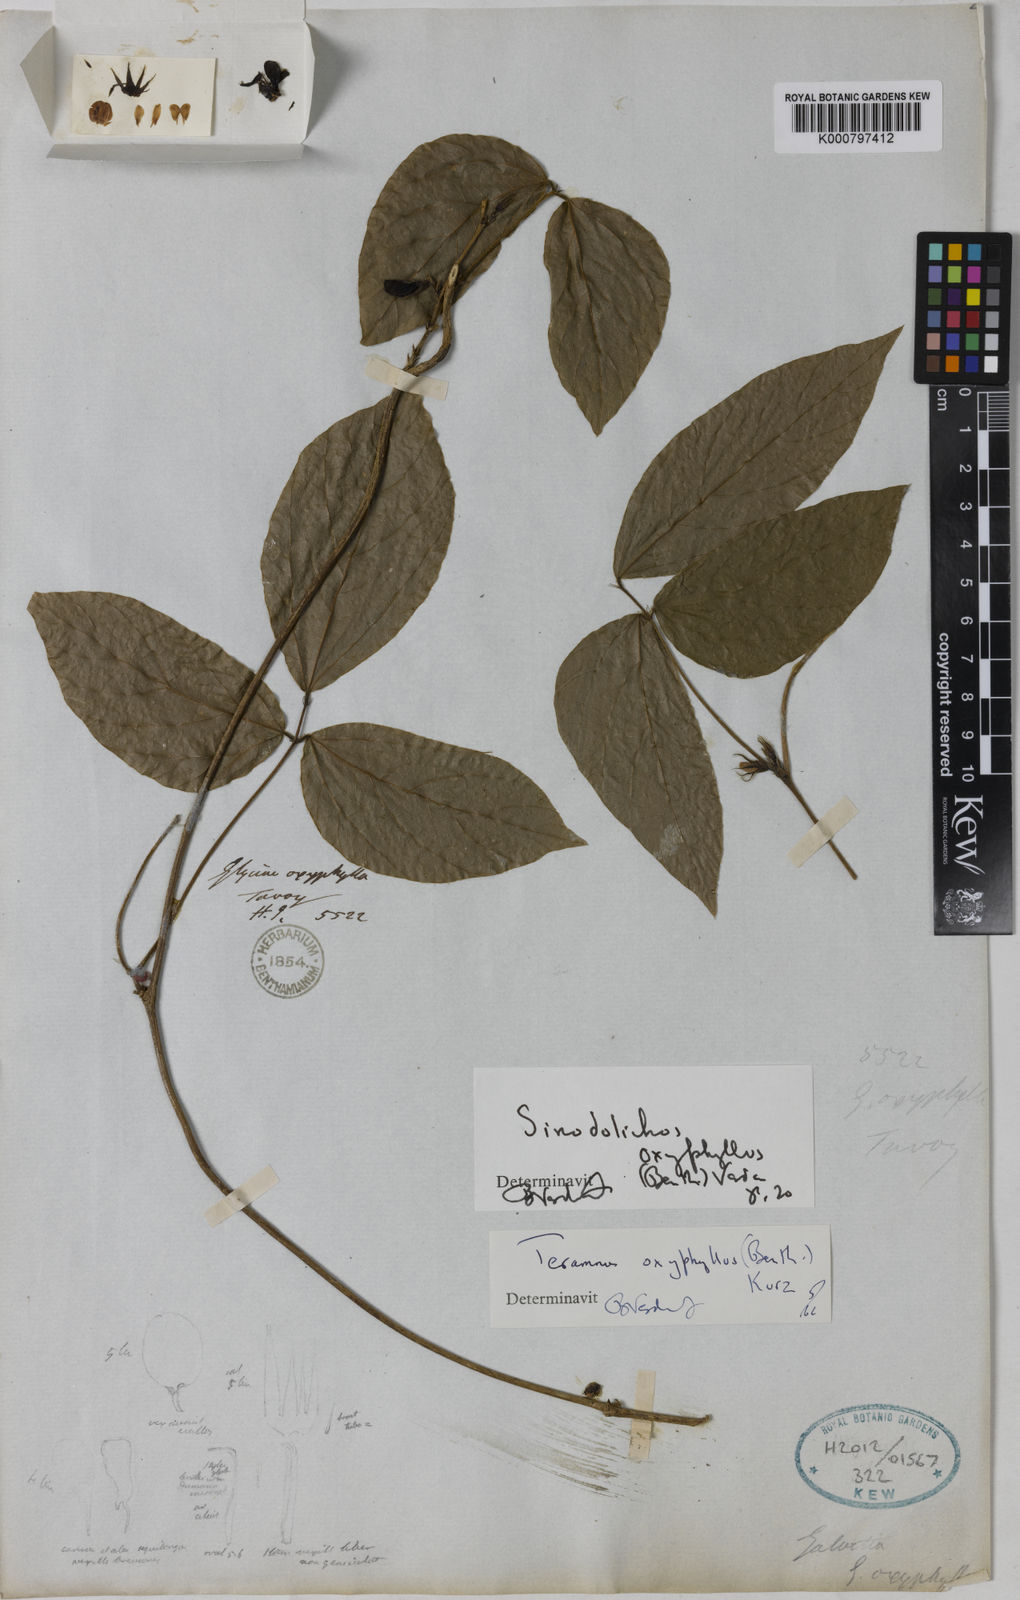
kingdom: Plantae
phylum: Tracheophyta
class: Magnoliopsida
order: Fabales
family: Fabaceae
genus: Sinodolichos
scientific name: Sinodolichos oxyphyllus
